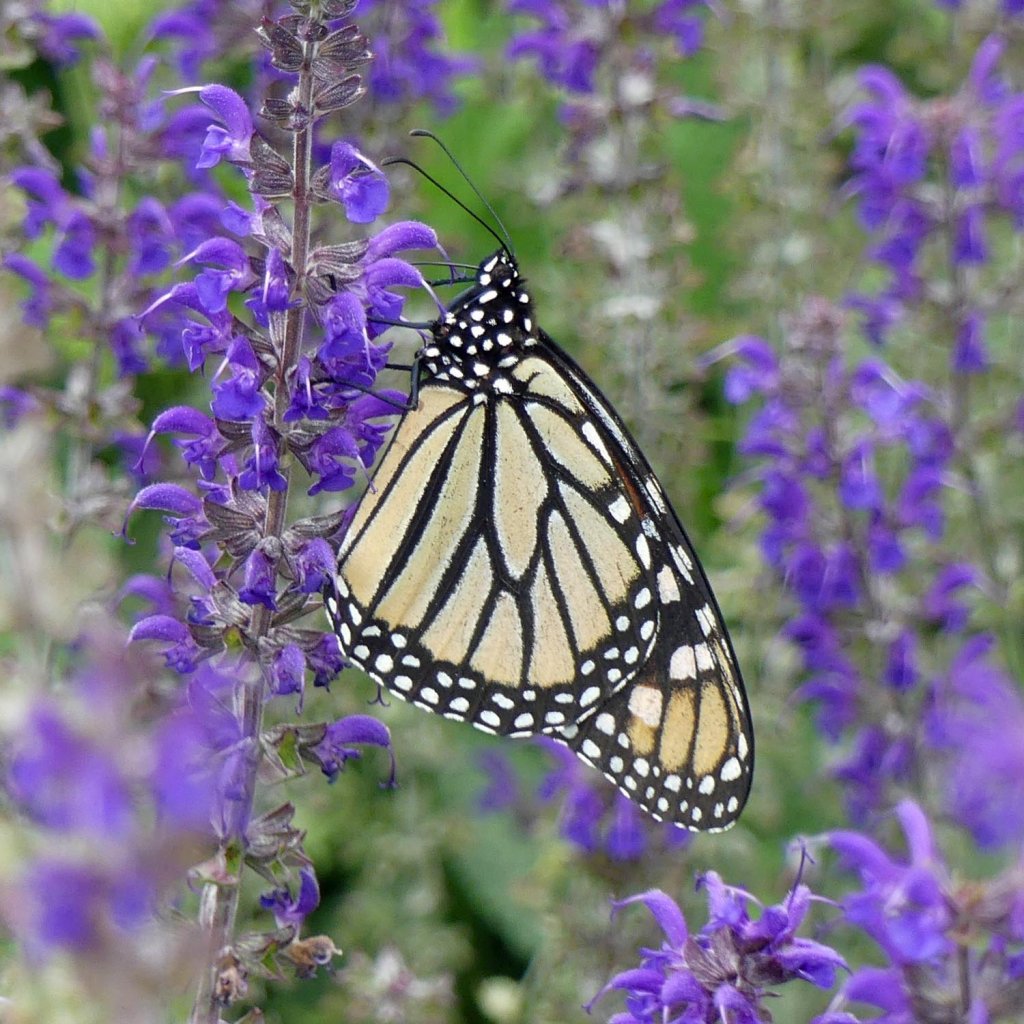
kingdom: Animalia
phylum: Arthropoda
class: Insecta
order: Lepidoptera
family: Nymphalidae
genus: Danaus
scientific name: Danaus plexippus
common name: Monarch
